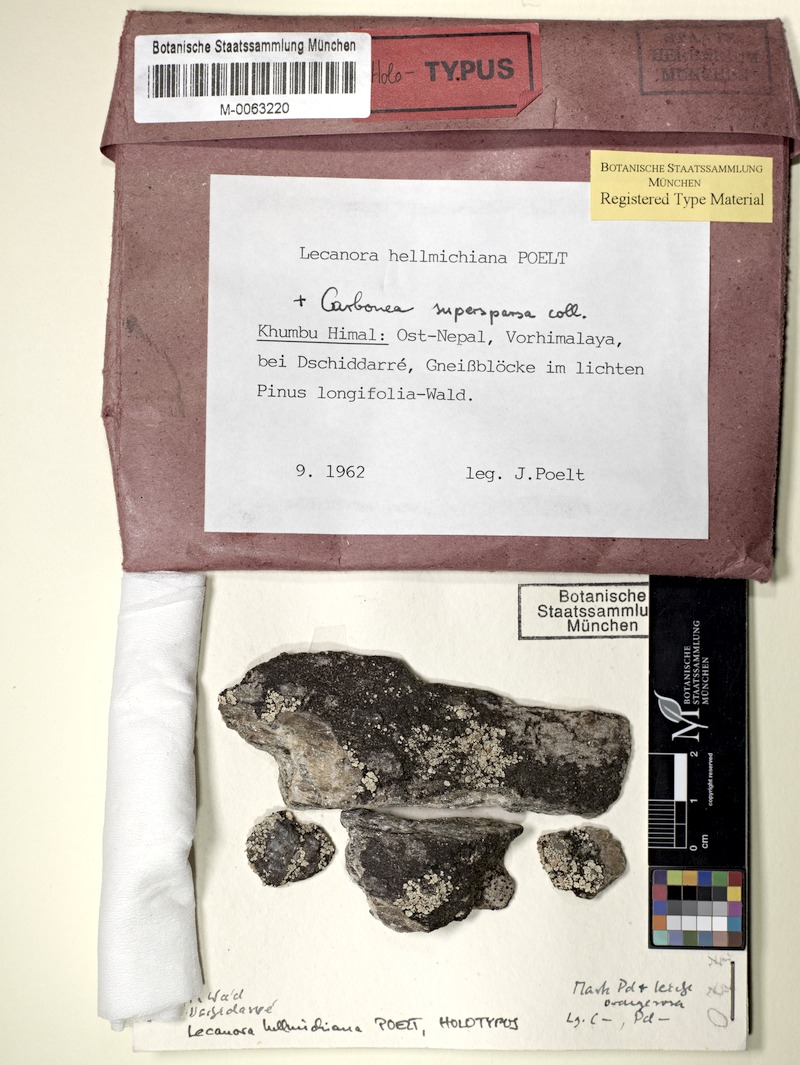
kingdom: Fungi
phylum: Ascomycota
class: Lecanoromycetes
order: Lecanorales
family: Lecanoraceae
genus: Lecanora
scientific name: Lecanora hellmichiana
